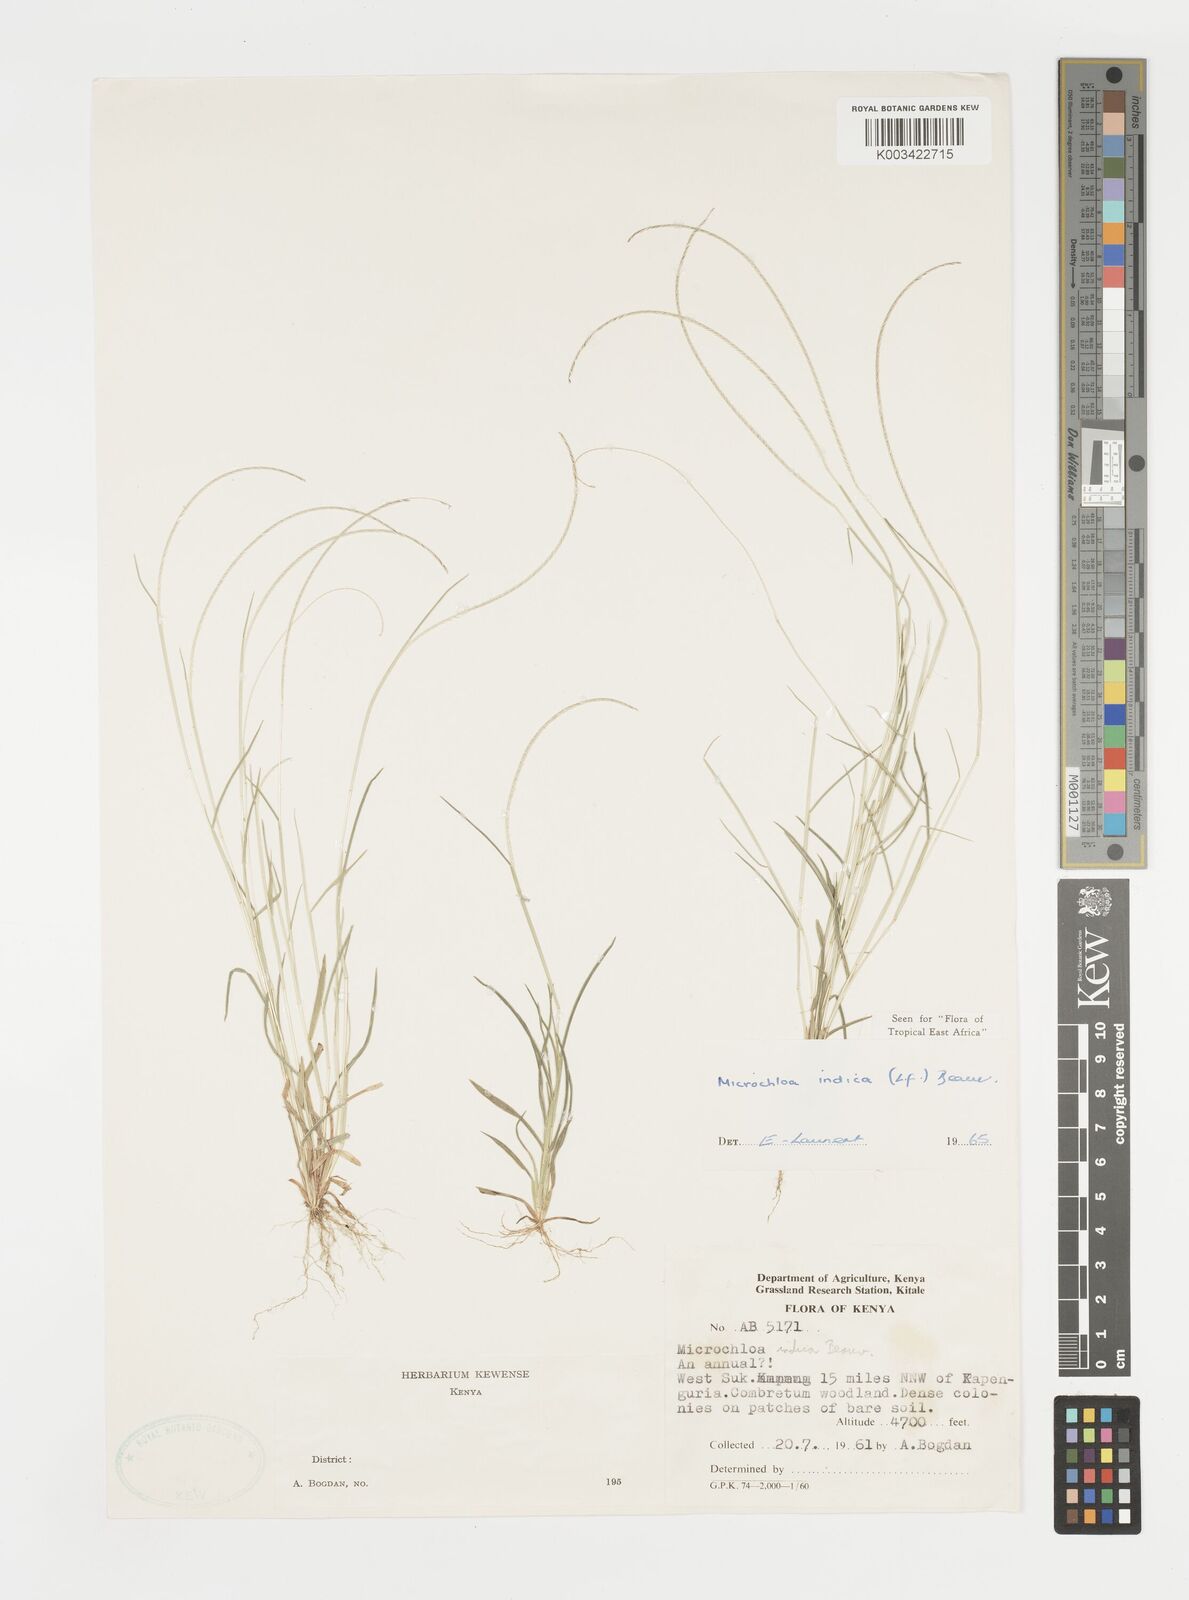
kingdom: Plantae
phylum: Tracheophyta
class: Liliopsida
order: Poales
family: Poaceae
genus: Microchloa
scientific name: Microchloa indica
